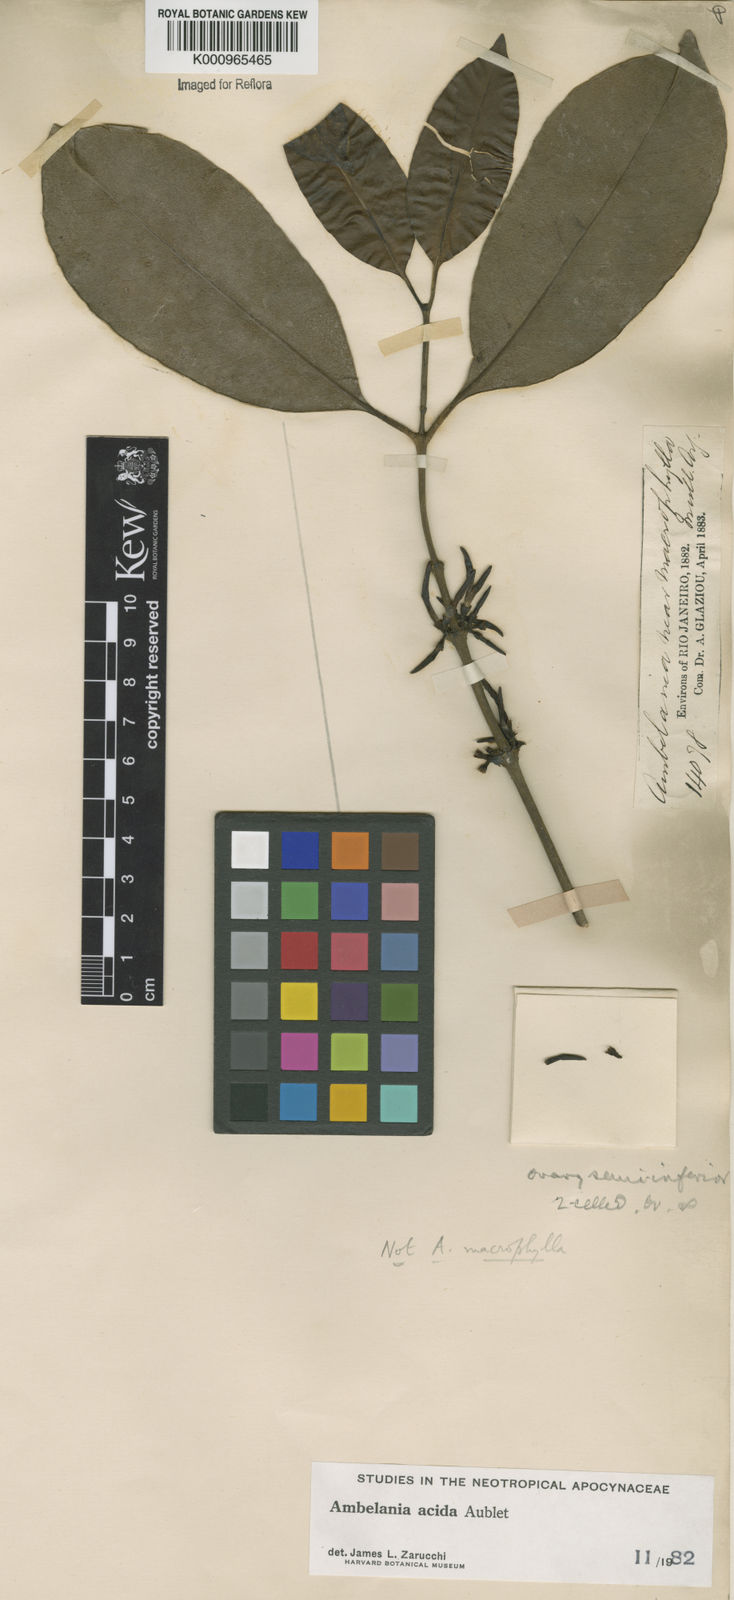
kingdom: Plantae
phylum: Tracheophyta
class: Magnoliopsida
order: Gentianales
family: Apocynaceae
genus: Ambelania
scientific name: Ambelania acida
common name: Bagasse
